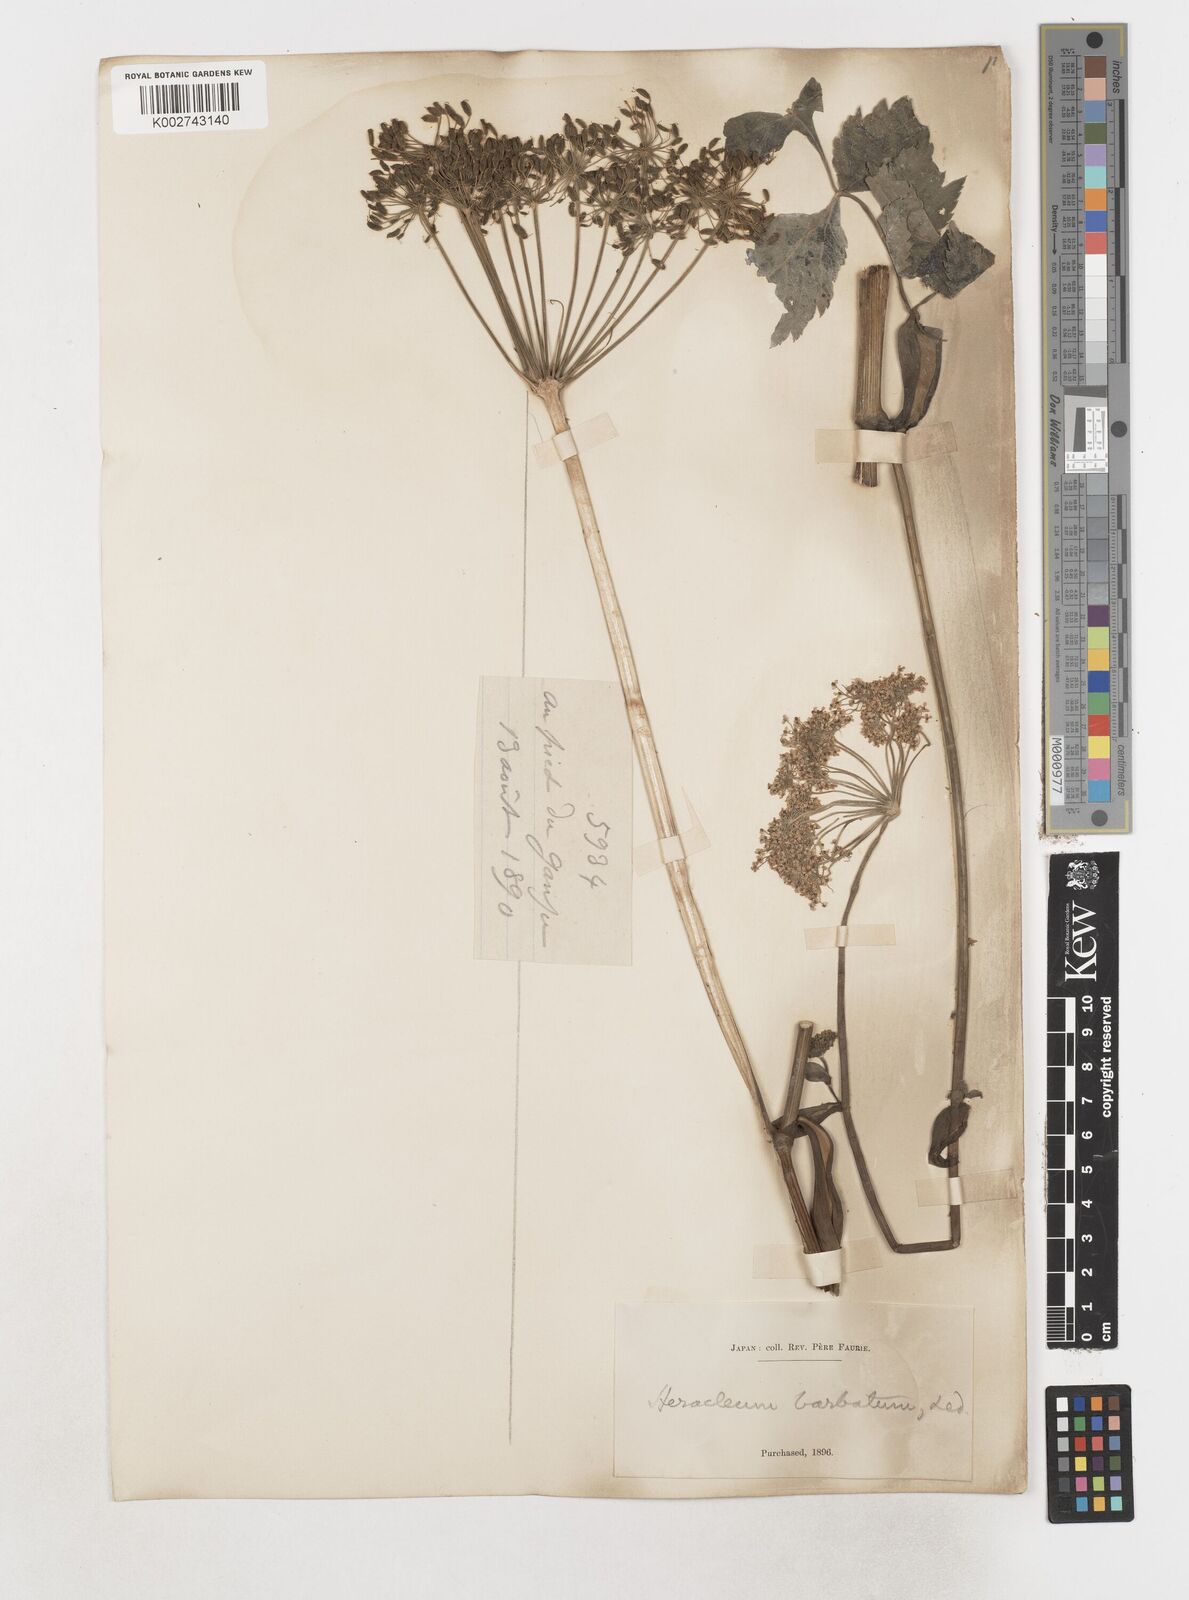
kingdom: Plantae
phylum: Tracheophyta
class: Magnoliopsida
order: Apiales
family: Apiaceae
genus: Heracleum
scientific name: Heracleum dissectum
